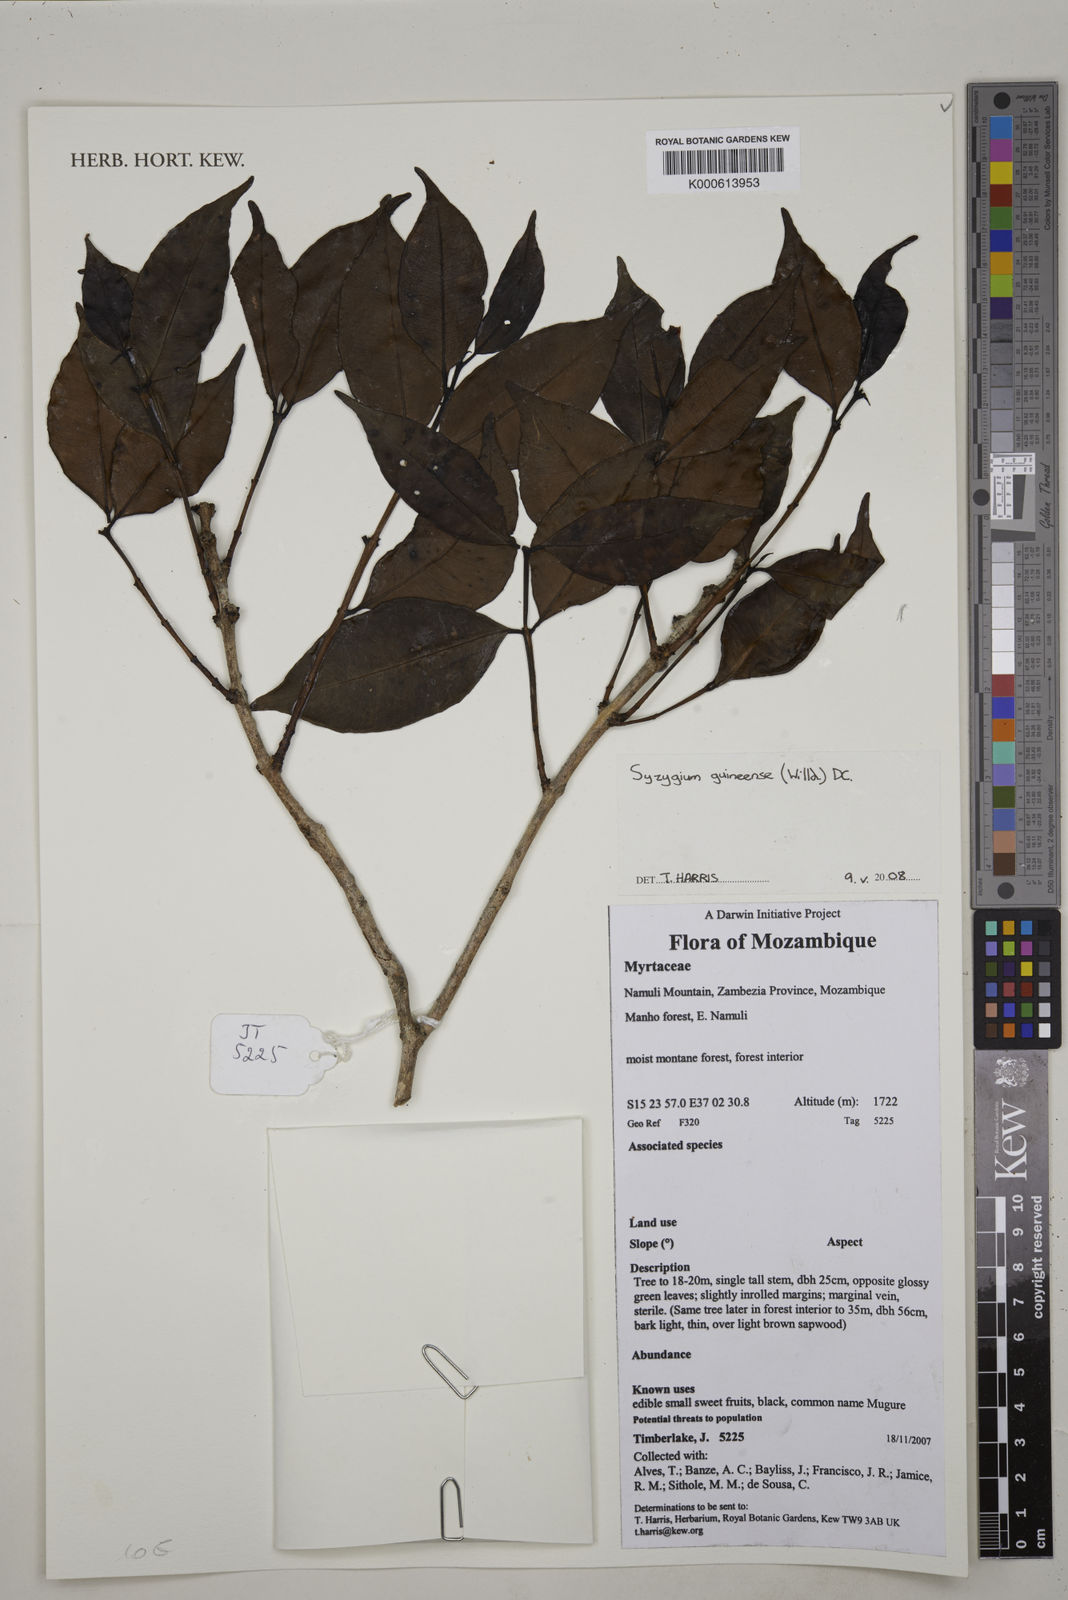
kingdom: Plantae
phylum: Tracheophyta
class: Magnoliopsida
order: Myrtales
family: Myrtaceae
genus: Syzygium
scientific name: Syzygium guineense
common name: Water-pear
